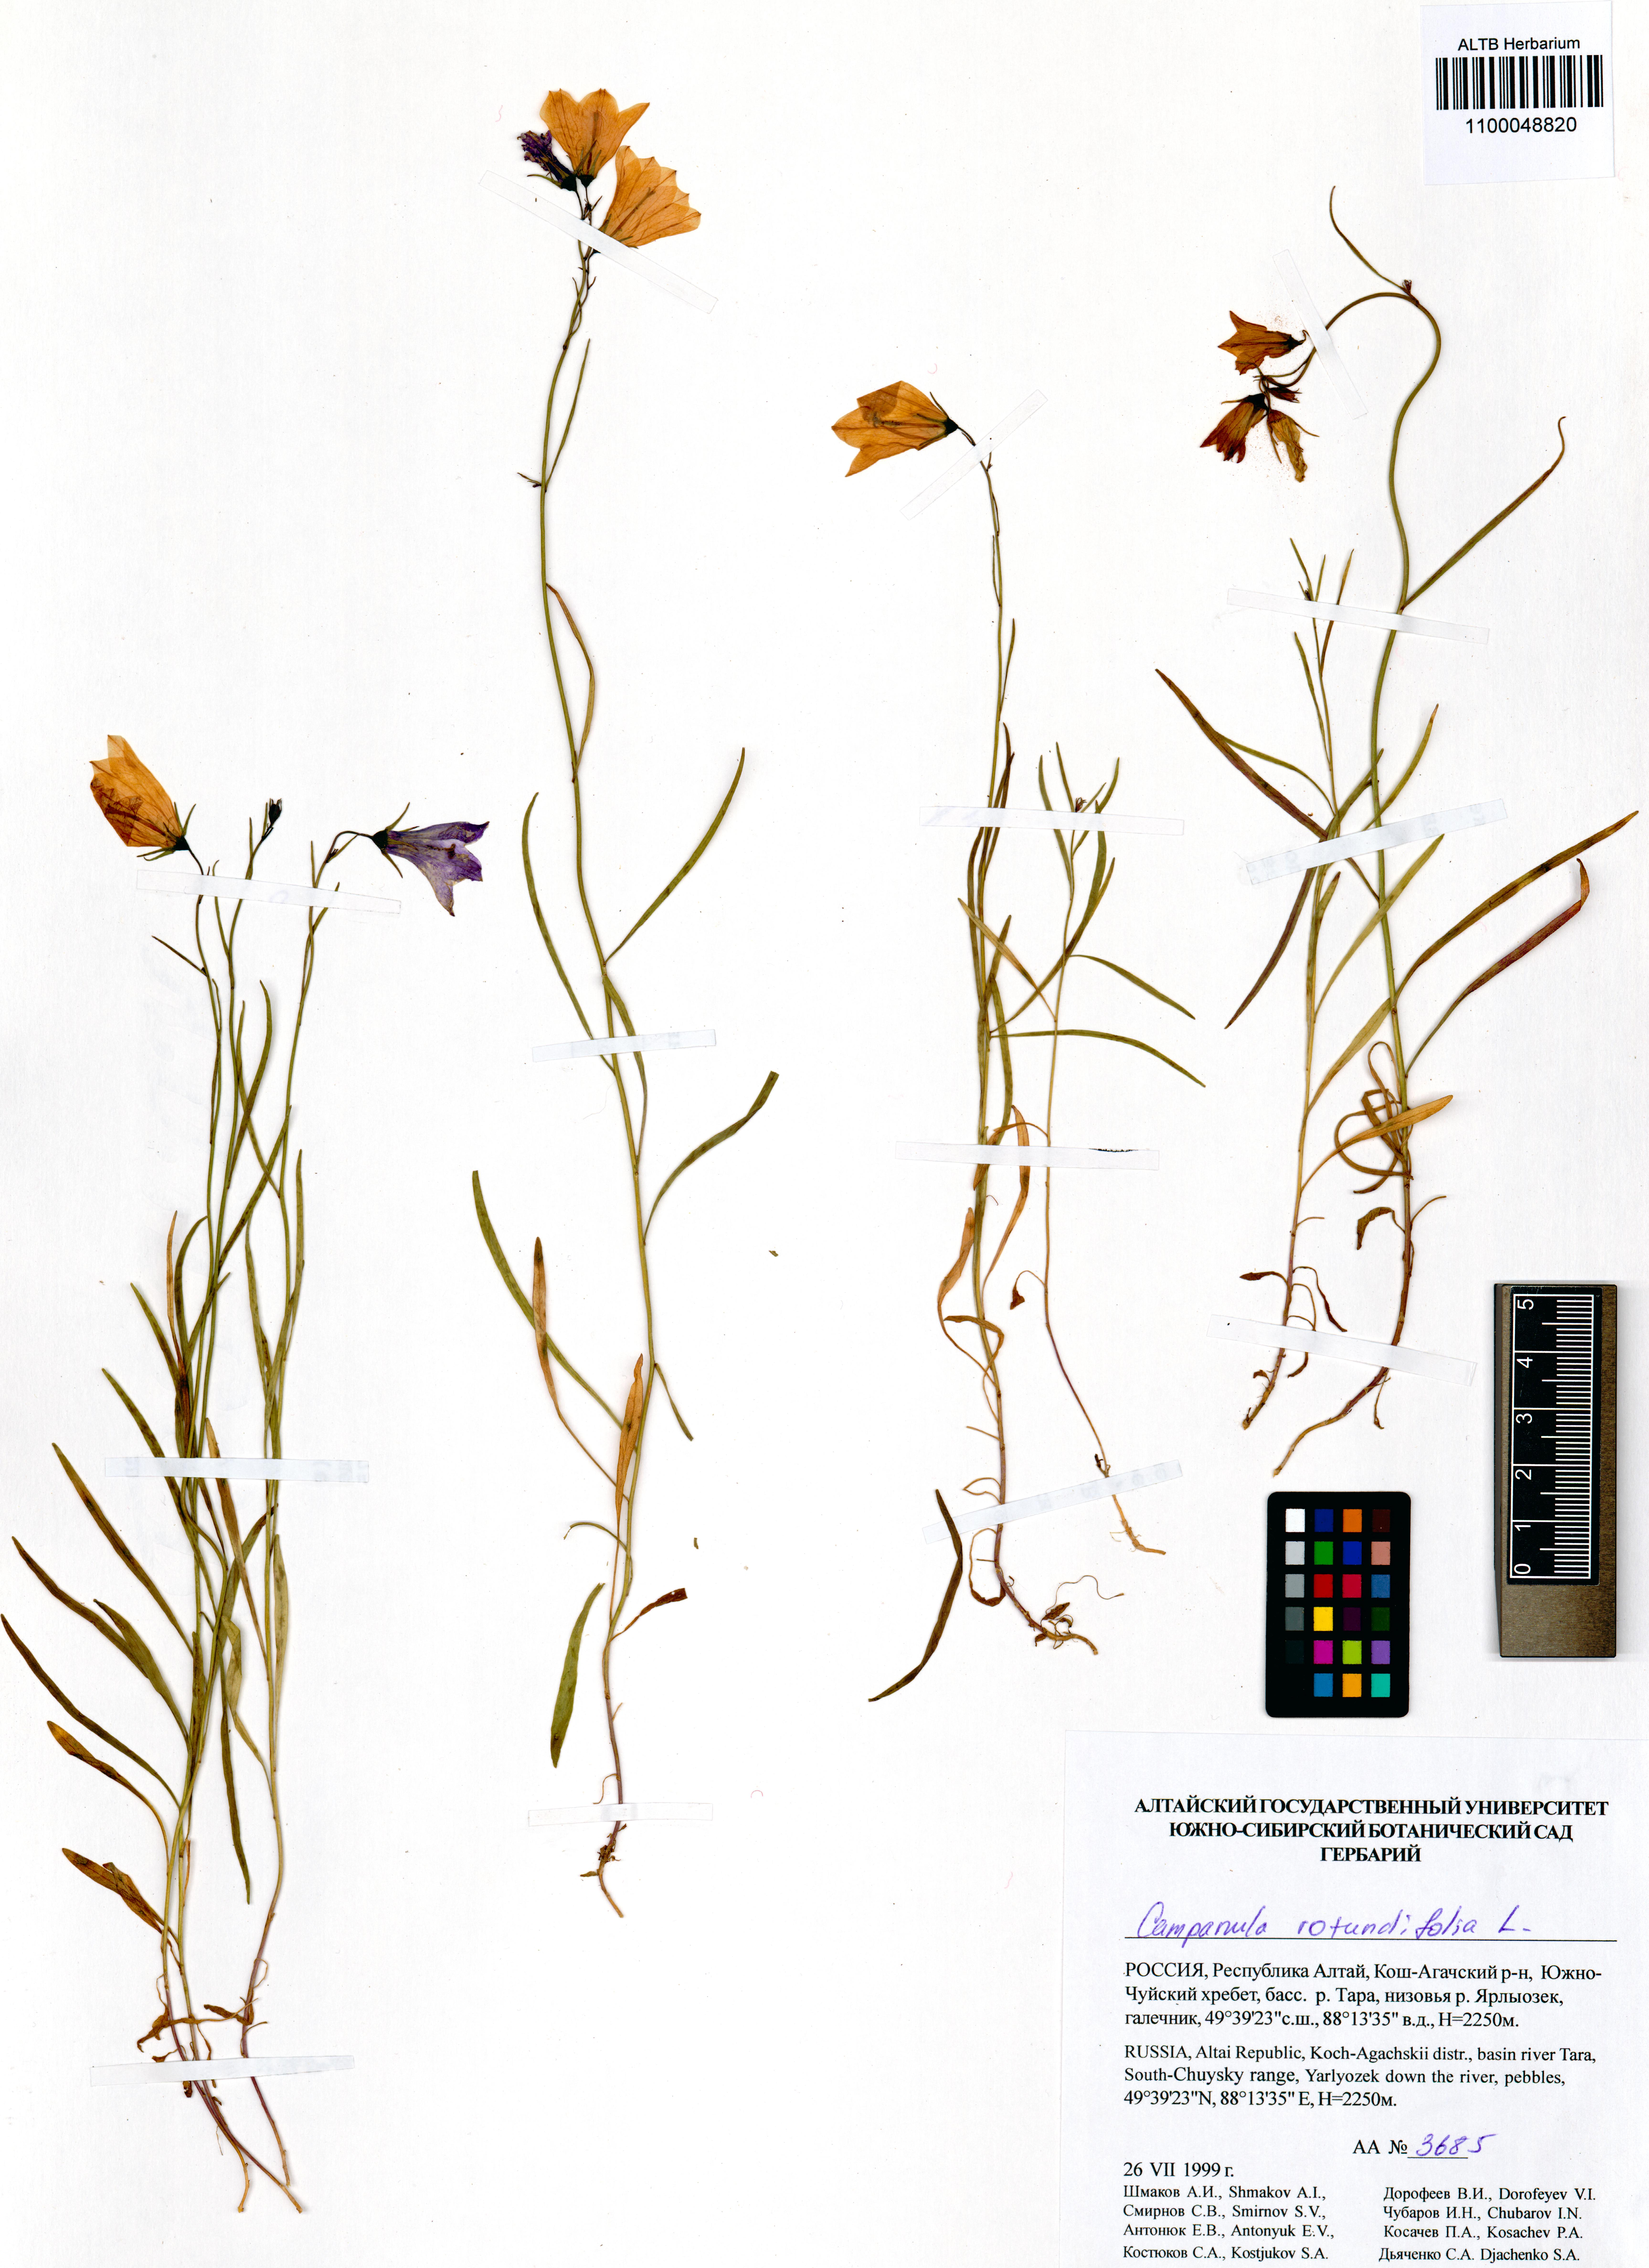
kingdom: Plantae
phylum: Tracheophyta
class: Magnoliopsida
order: Asterales
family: Campanulaceae
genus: Campanula
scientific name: Campanula rotundifolia
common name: Harebell
